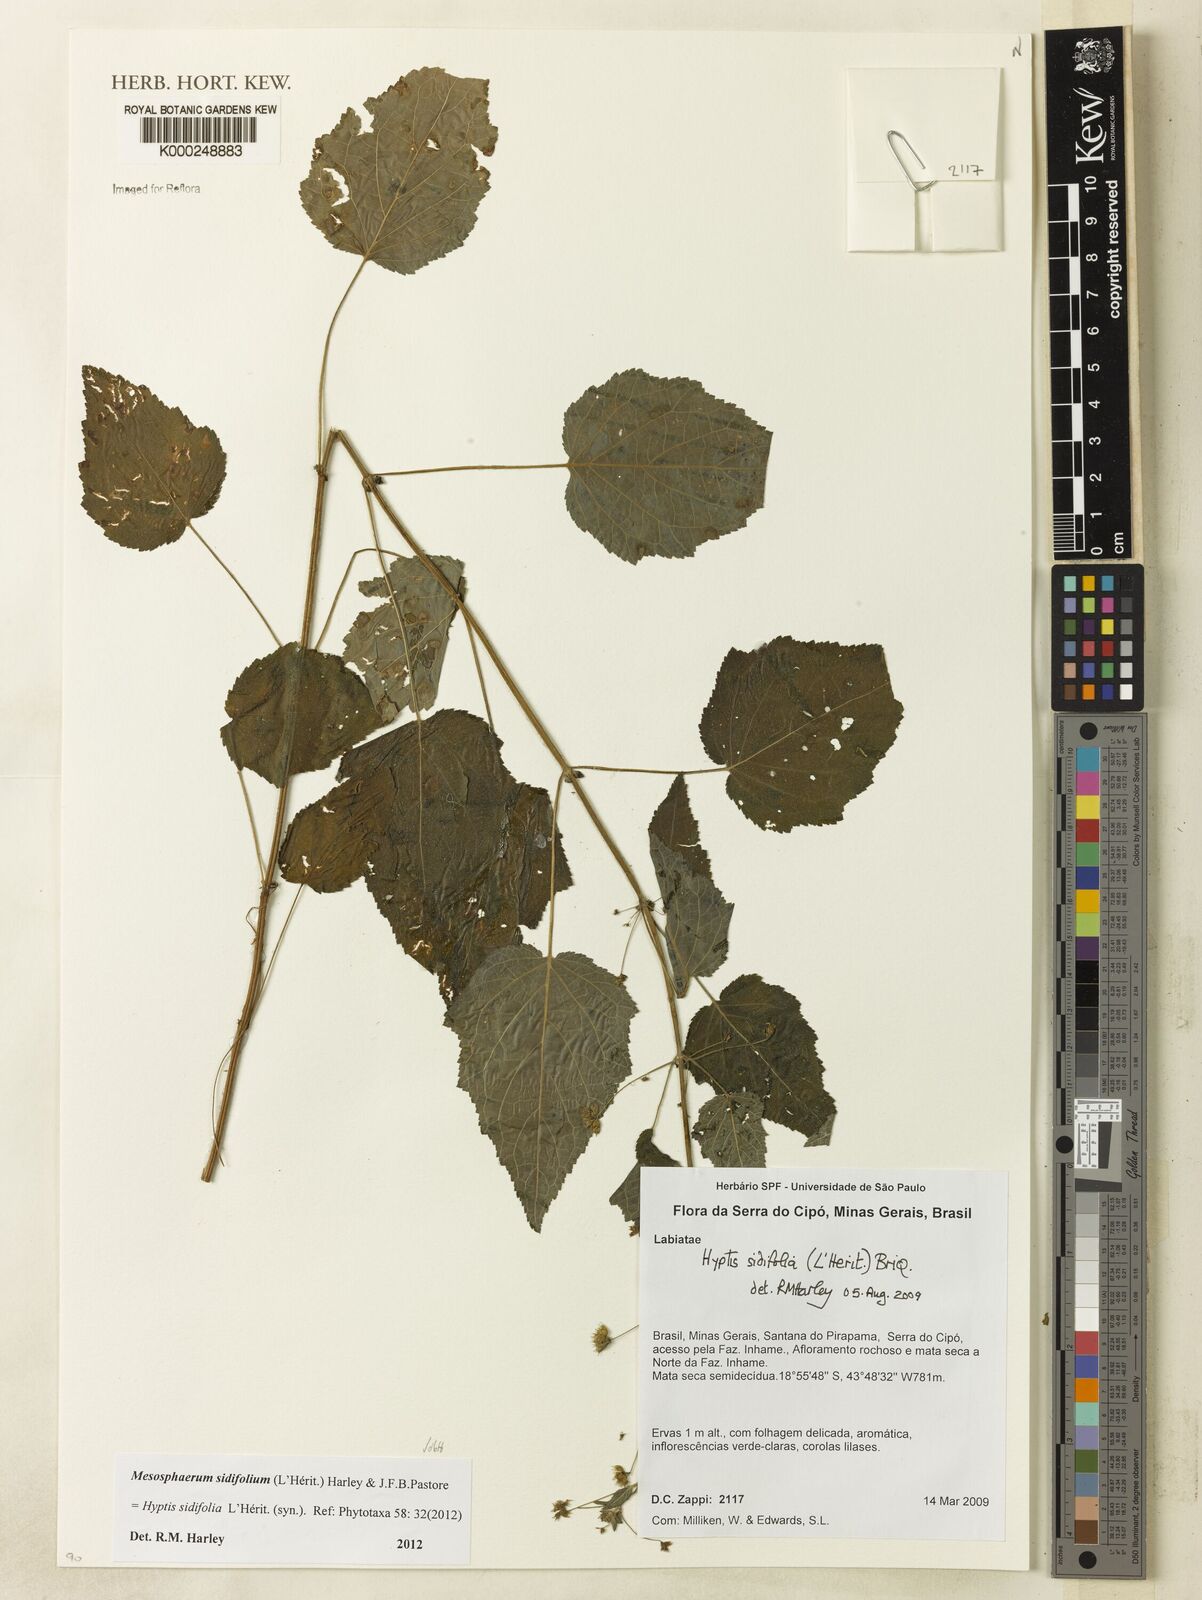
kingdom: Plantae
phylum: Tracheophyta
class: Magnoliopsida
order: Lamiales
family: Lamiaceae
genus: Mesosphaerum
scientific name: Mesosphaerum sidifolium
